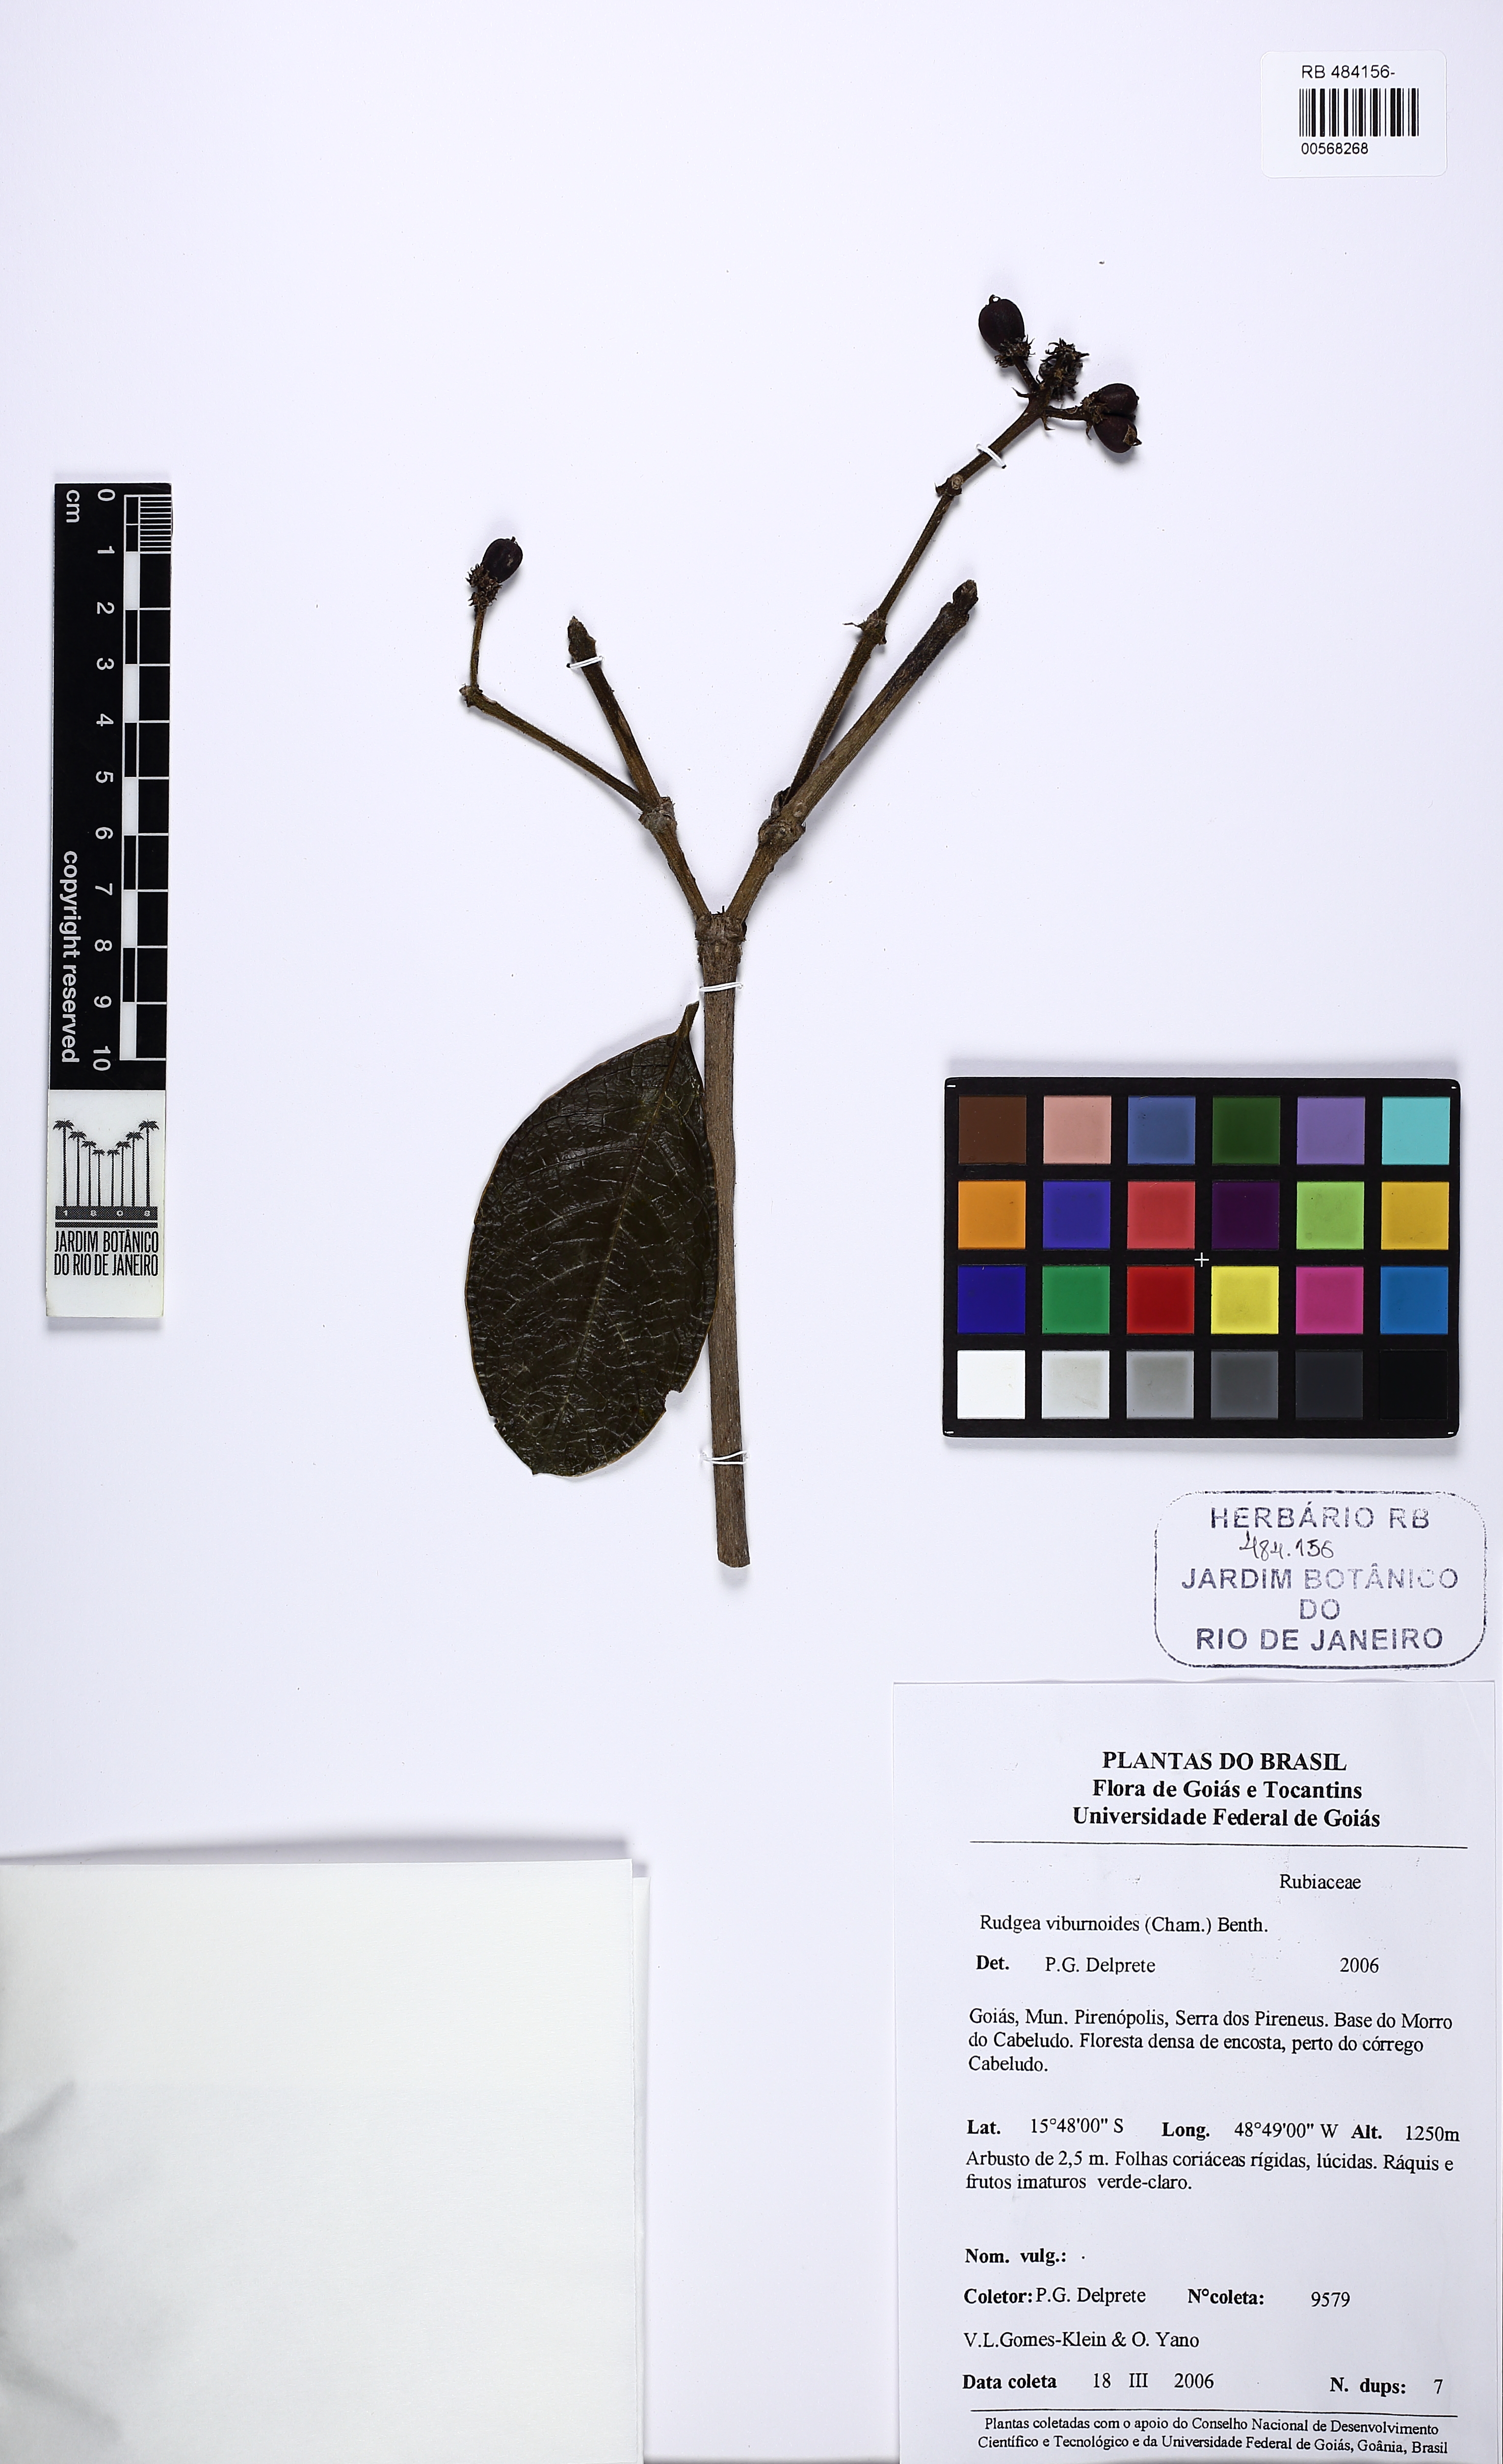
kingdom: Plantae
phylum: Tracheophyta
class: Magnoliopsida
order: Gentianales
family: Rubiaceae
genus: Rudgea
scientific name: Rudgea viburnoides
